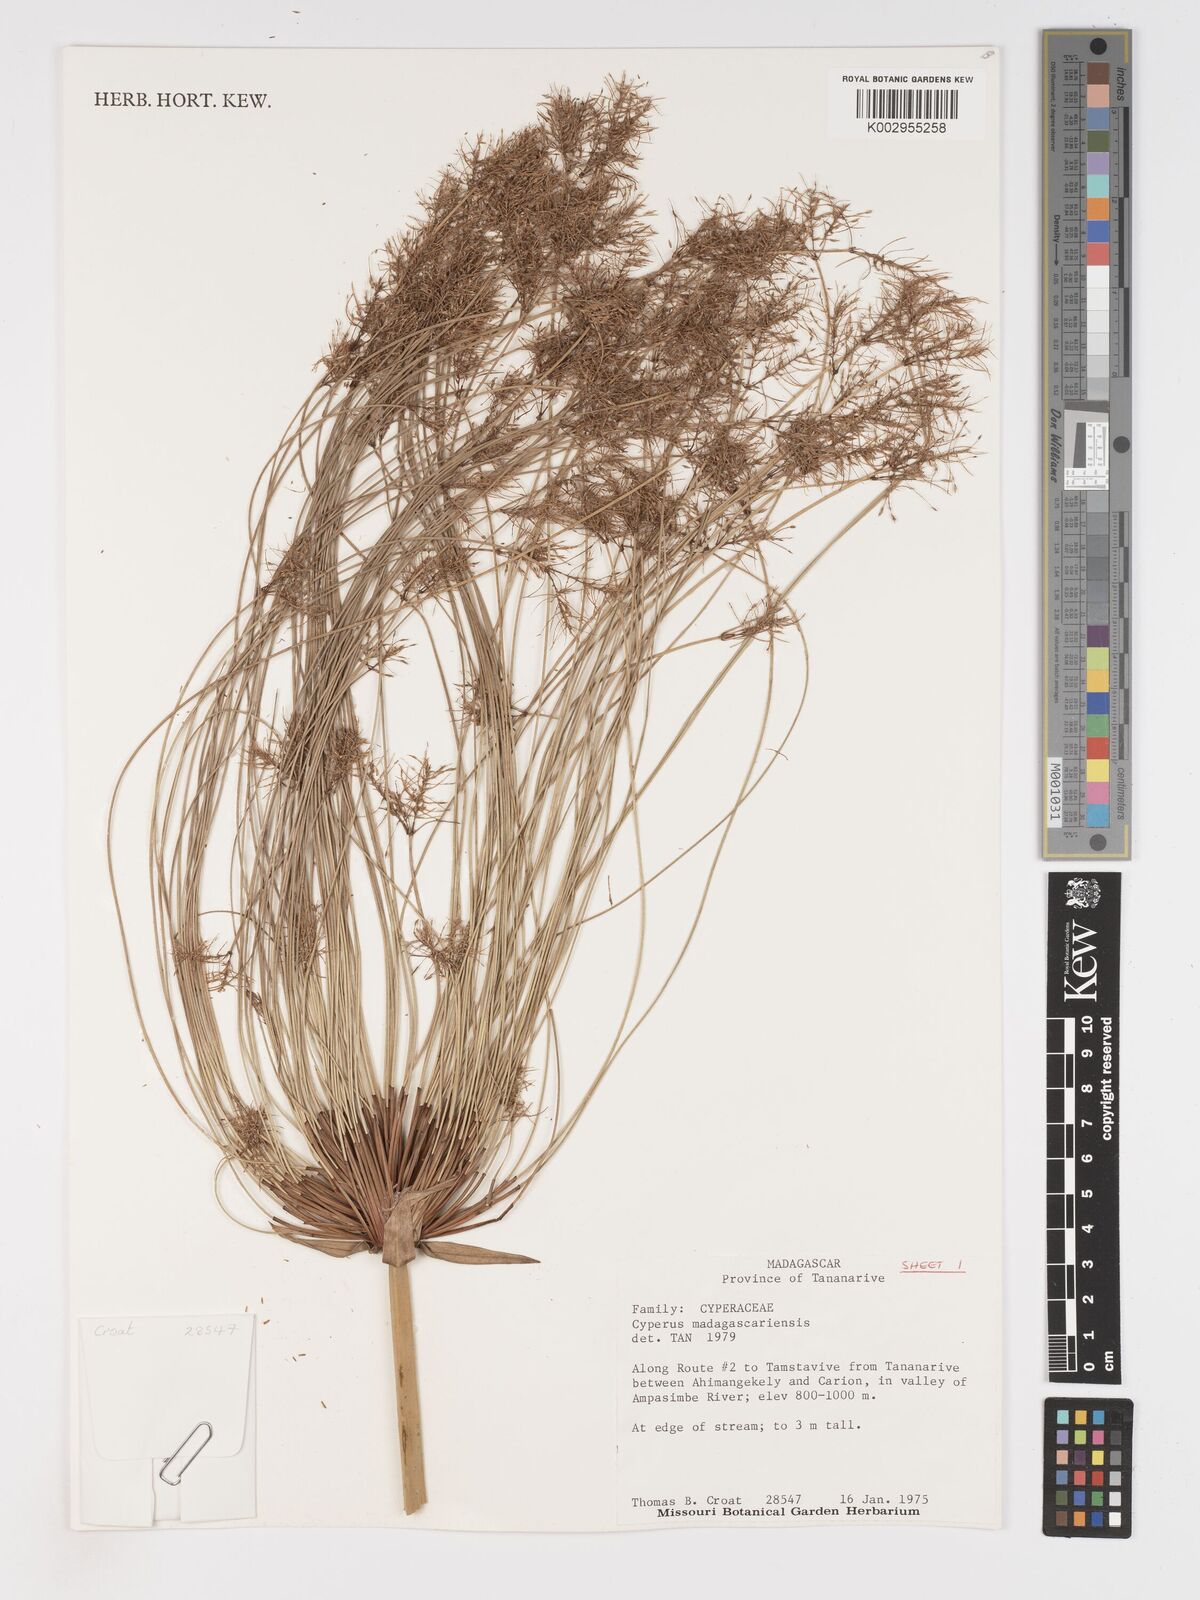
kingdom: Plantae
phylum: Tracheophyta
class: Liliopsida
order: Poales
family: Cyperaceae
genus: Cyperus
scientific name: Cyperus papyrus
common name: Papyrus
